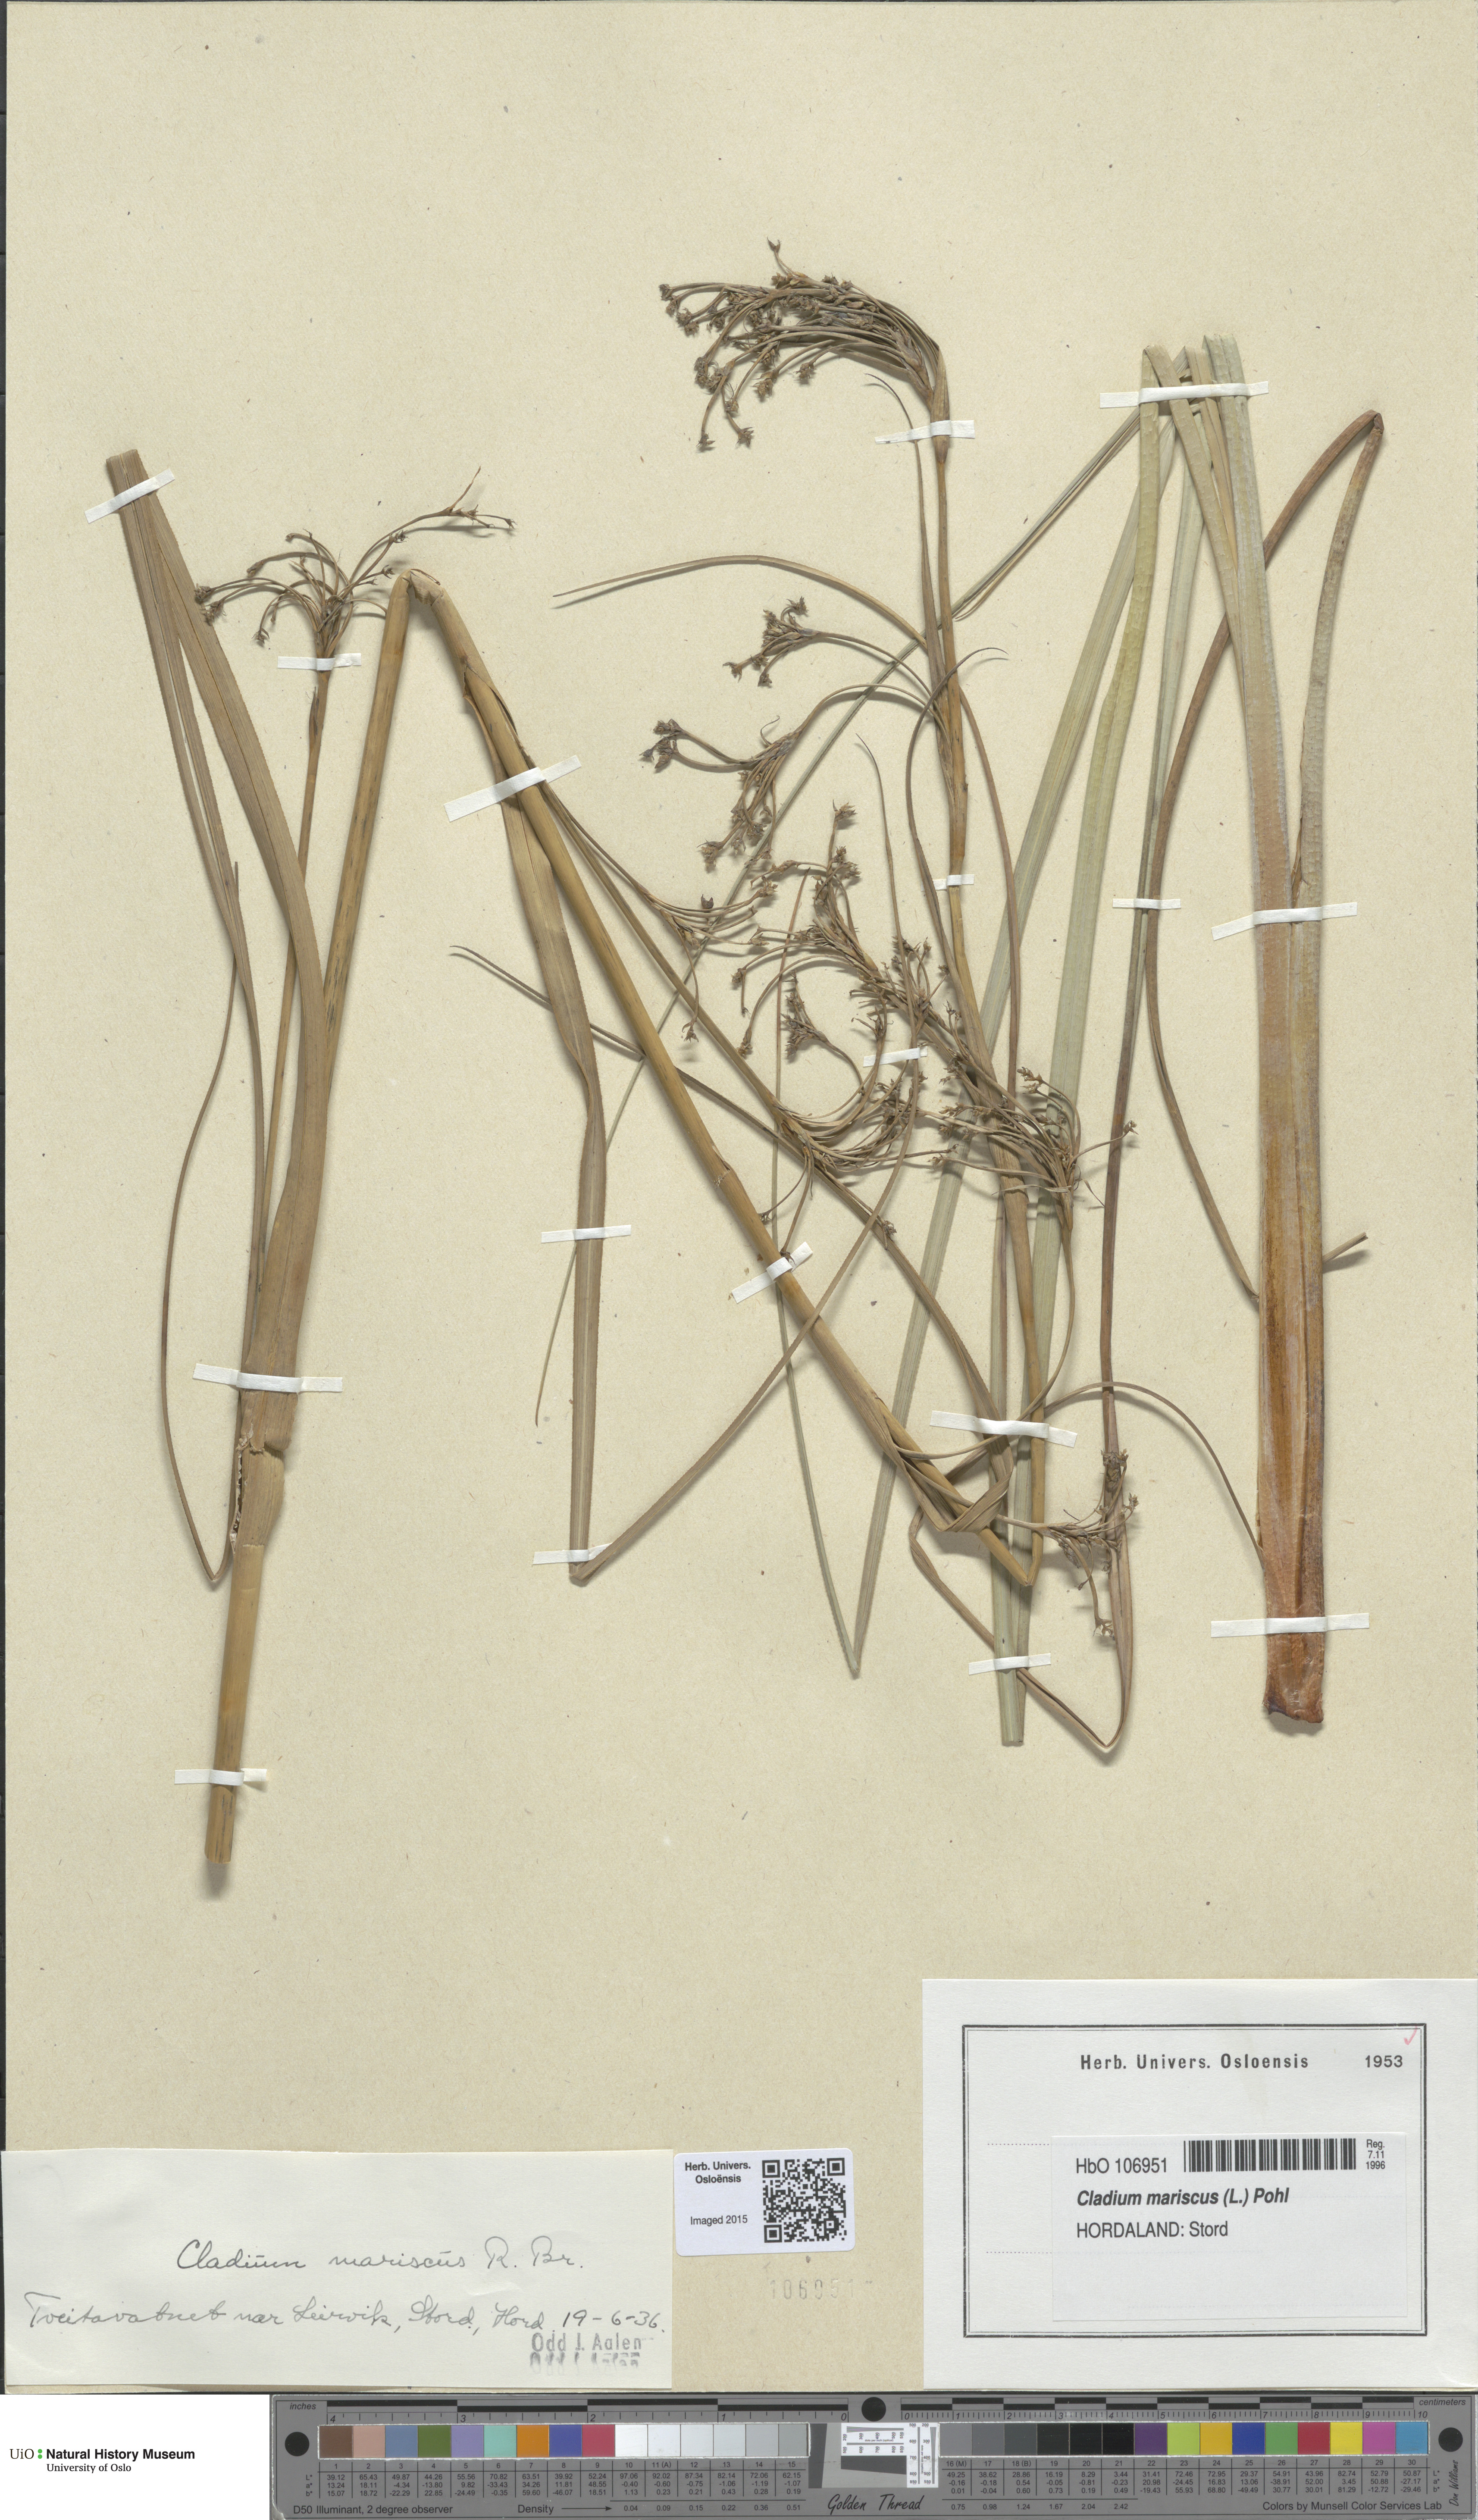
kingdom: Plantae
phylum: Tracheophyta
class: Liliopsida
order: Poales
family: Cyperaceae
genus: Cladium
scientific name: Cladium mariscus
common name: Great fen-sedge
